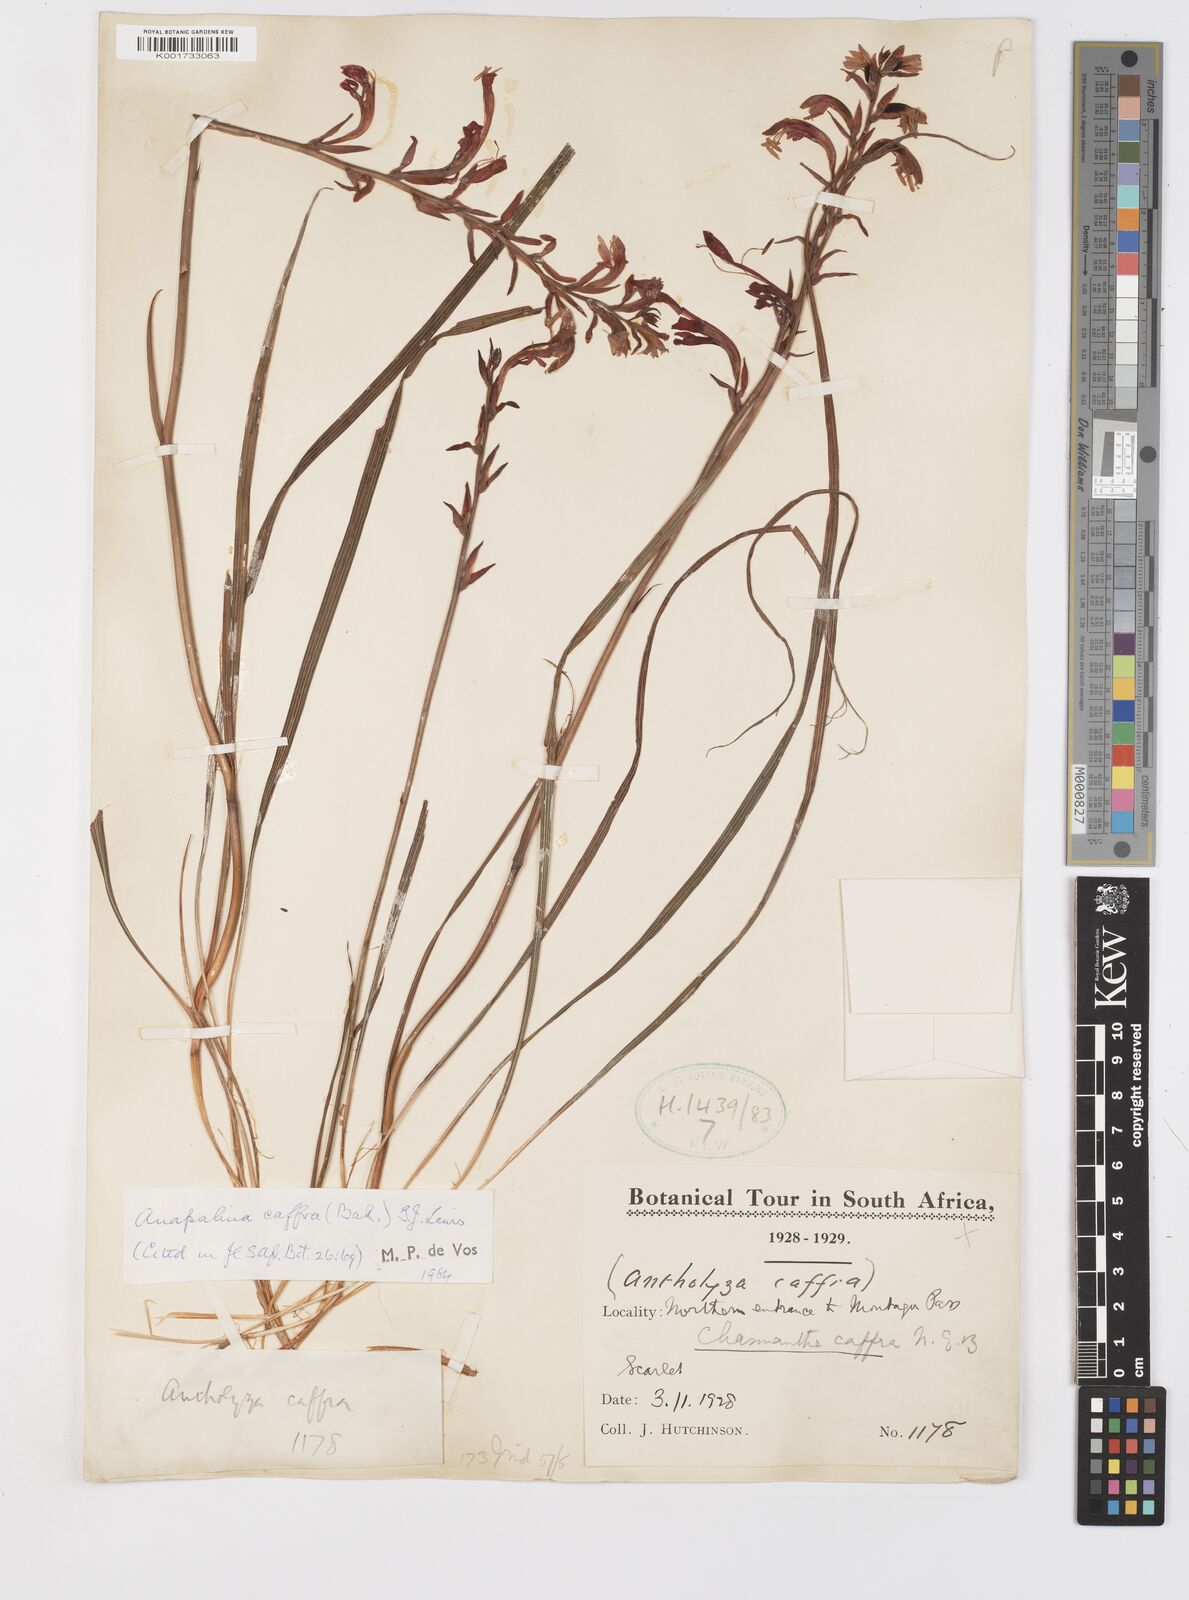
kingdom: Plantae
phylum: Tracheophyta
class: Liliopsida
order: Asparagales
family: Iridaceae
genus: Tritoniopsis
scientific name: Tritoniopsis caffra
